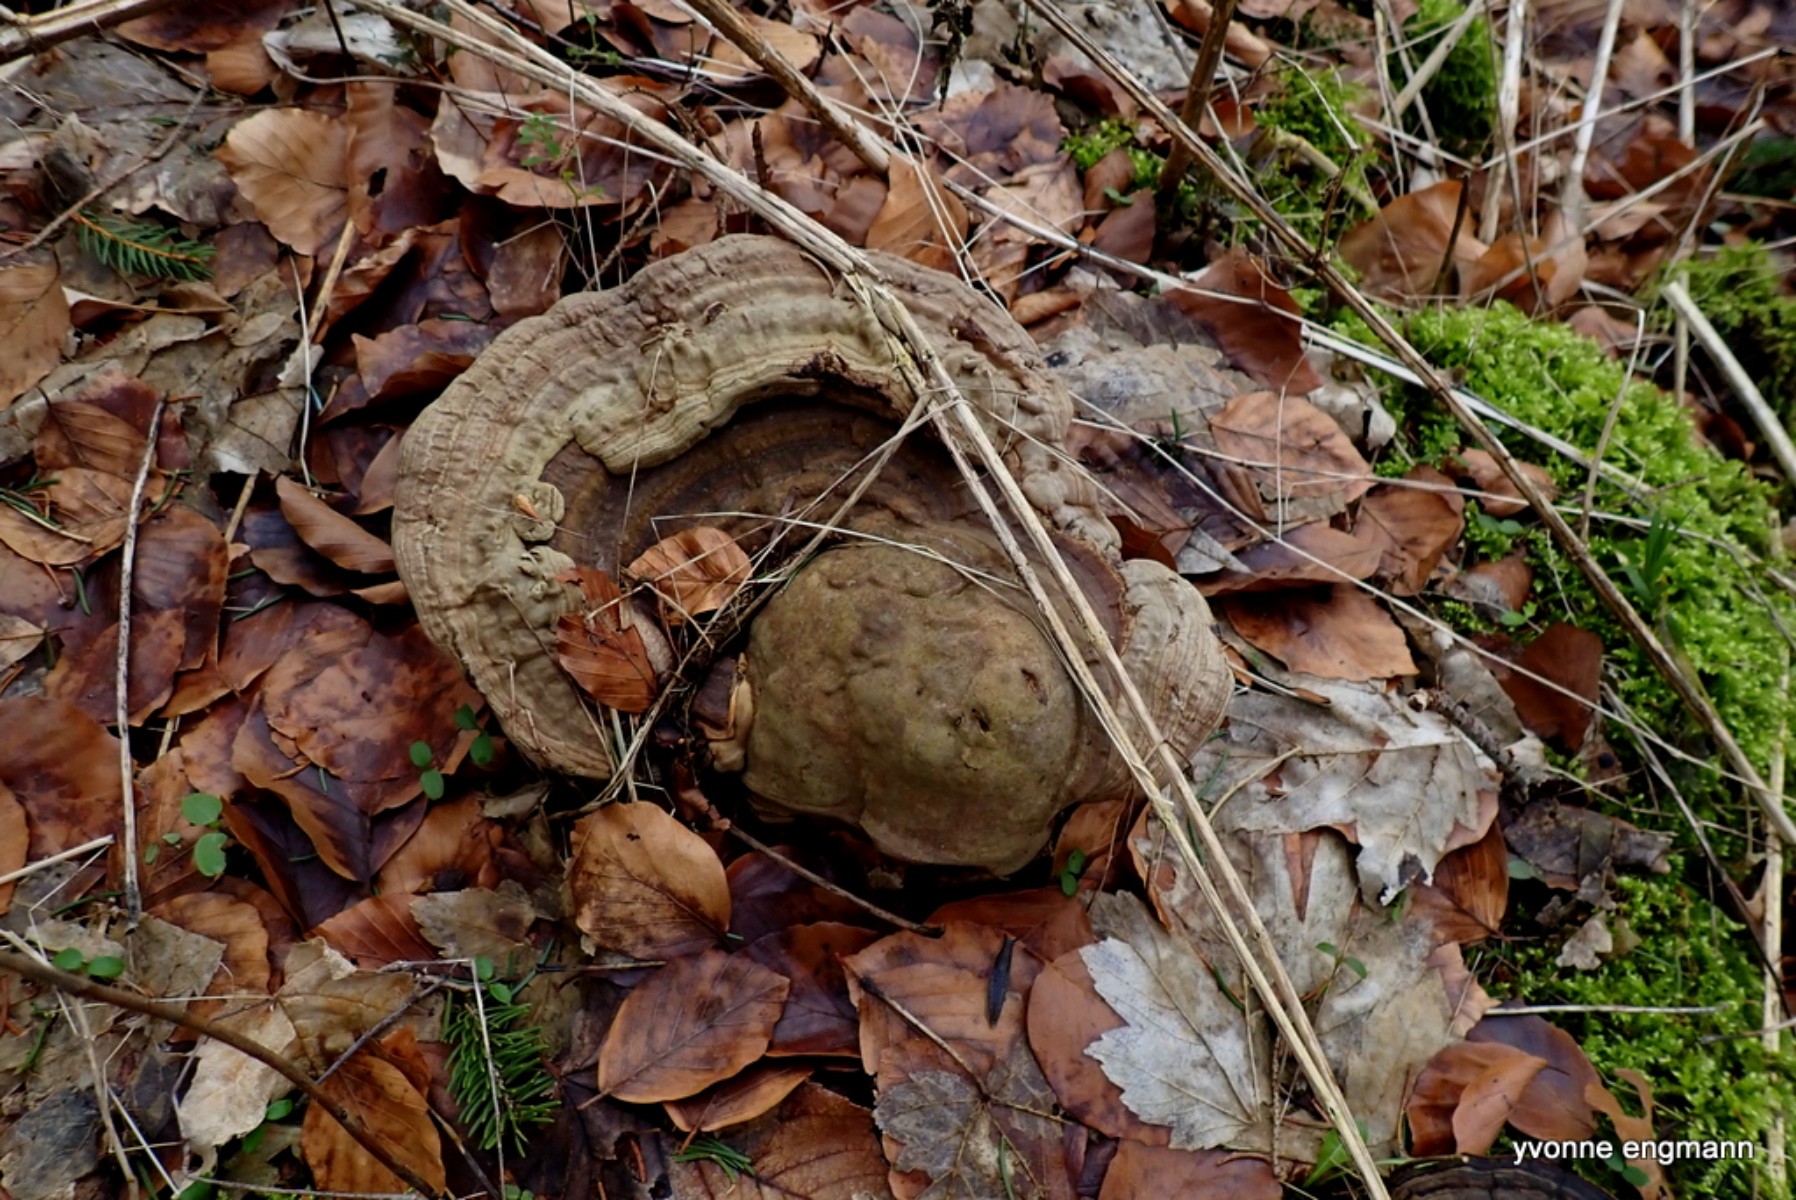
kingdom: Fungi
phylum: Basidiomycota
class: Agaricomycetes
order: Polyporales
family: Polyporaceae
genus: Ganoderma
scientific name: Ganoderma applanatum
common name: flad lakporesvamp
